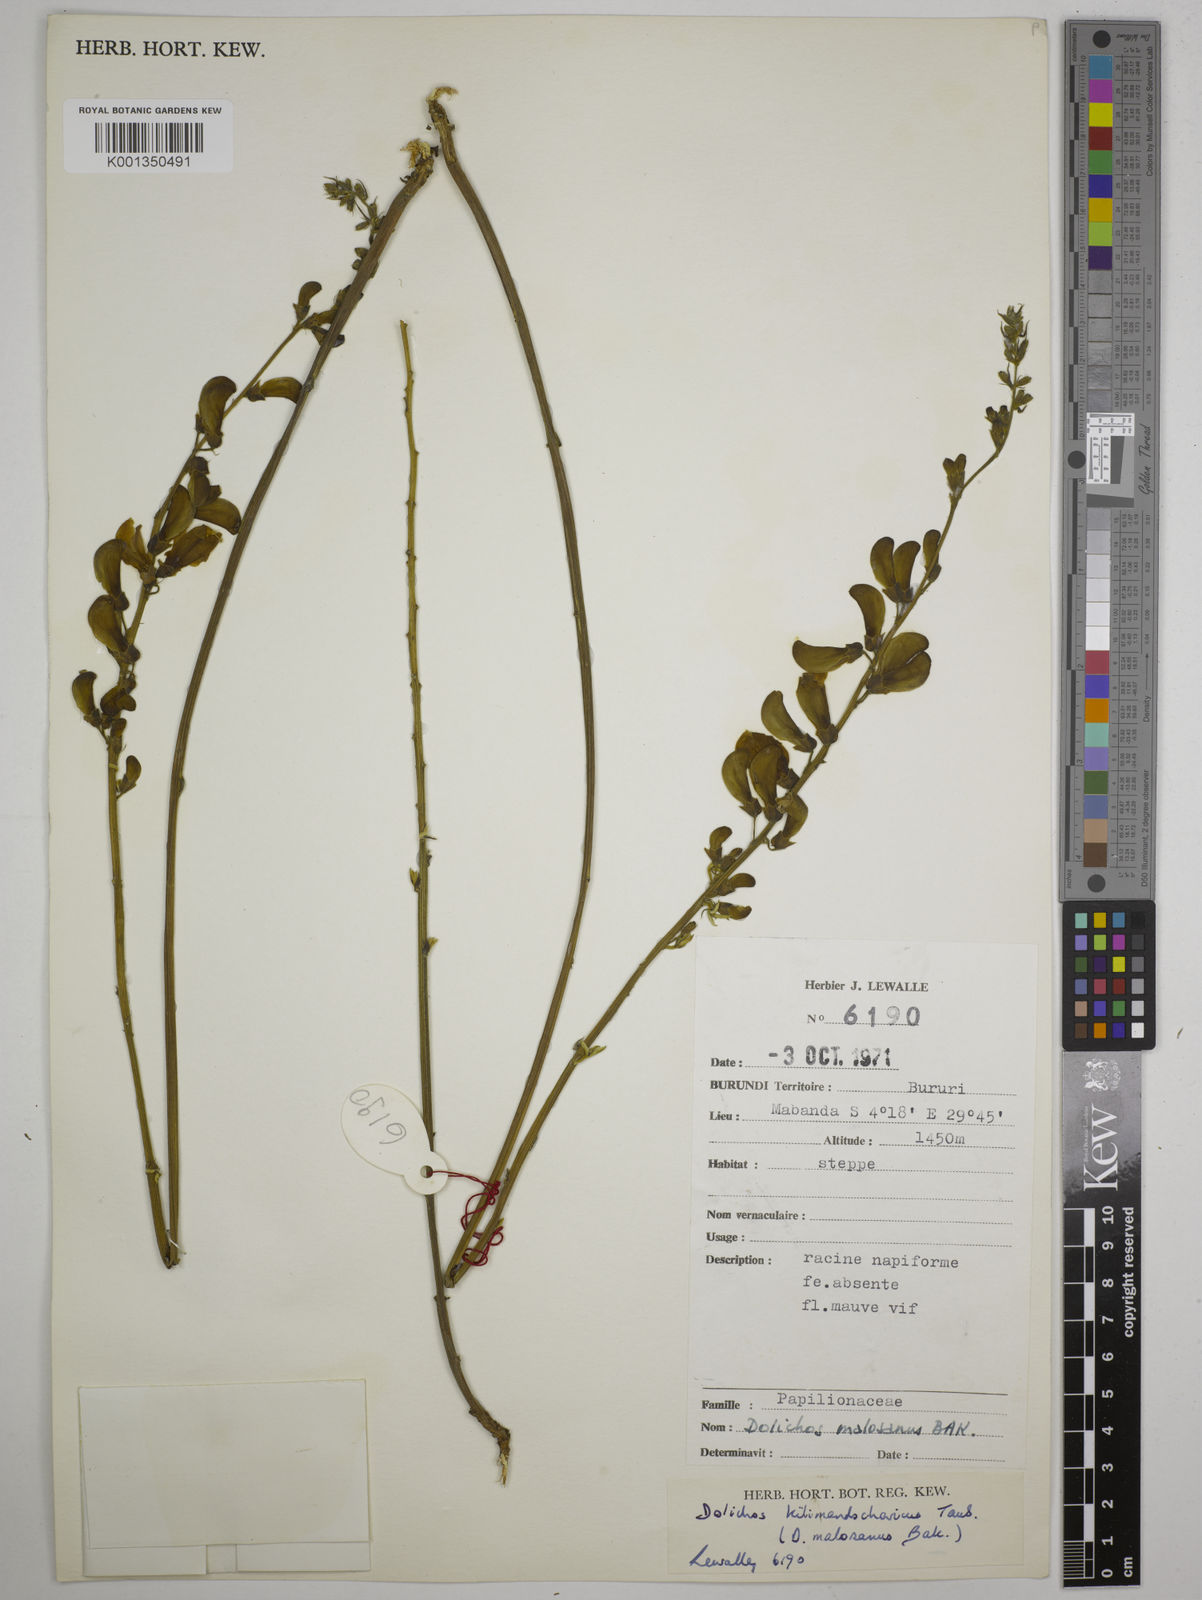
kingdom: Plantae
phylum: Tracheophyta
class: Magnoliopsida
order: Fabales
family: Fabaceae
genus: Dolichos
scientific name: Dolichos kilimandscharicus
